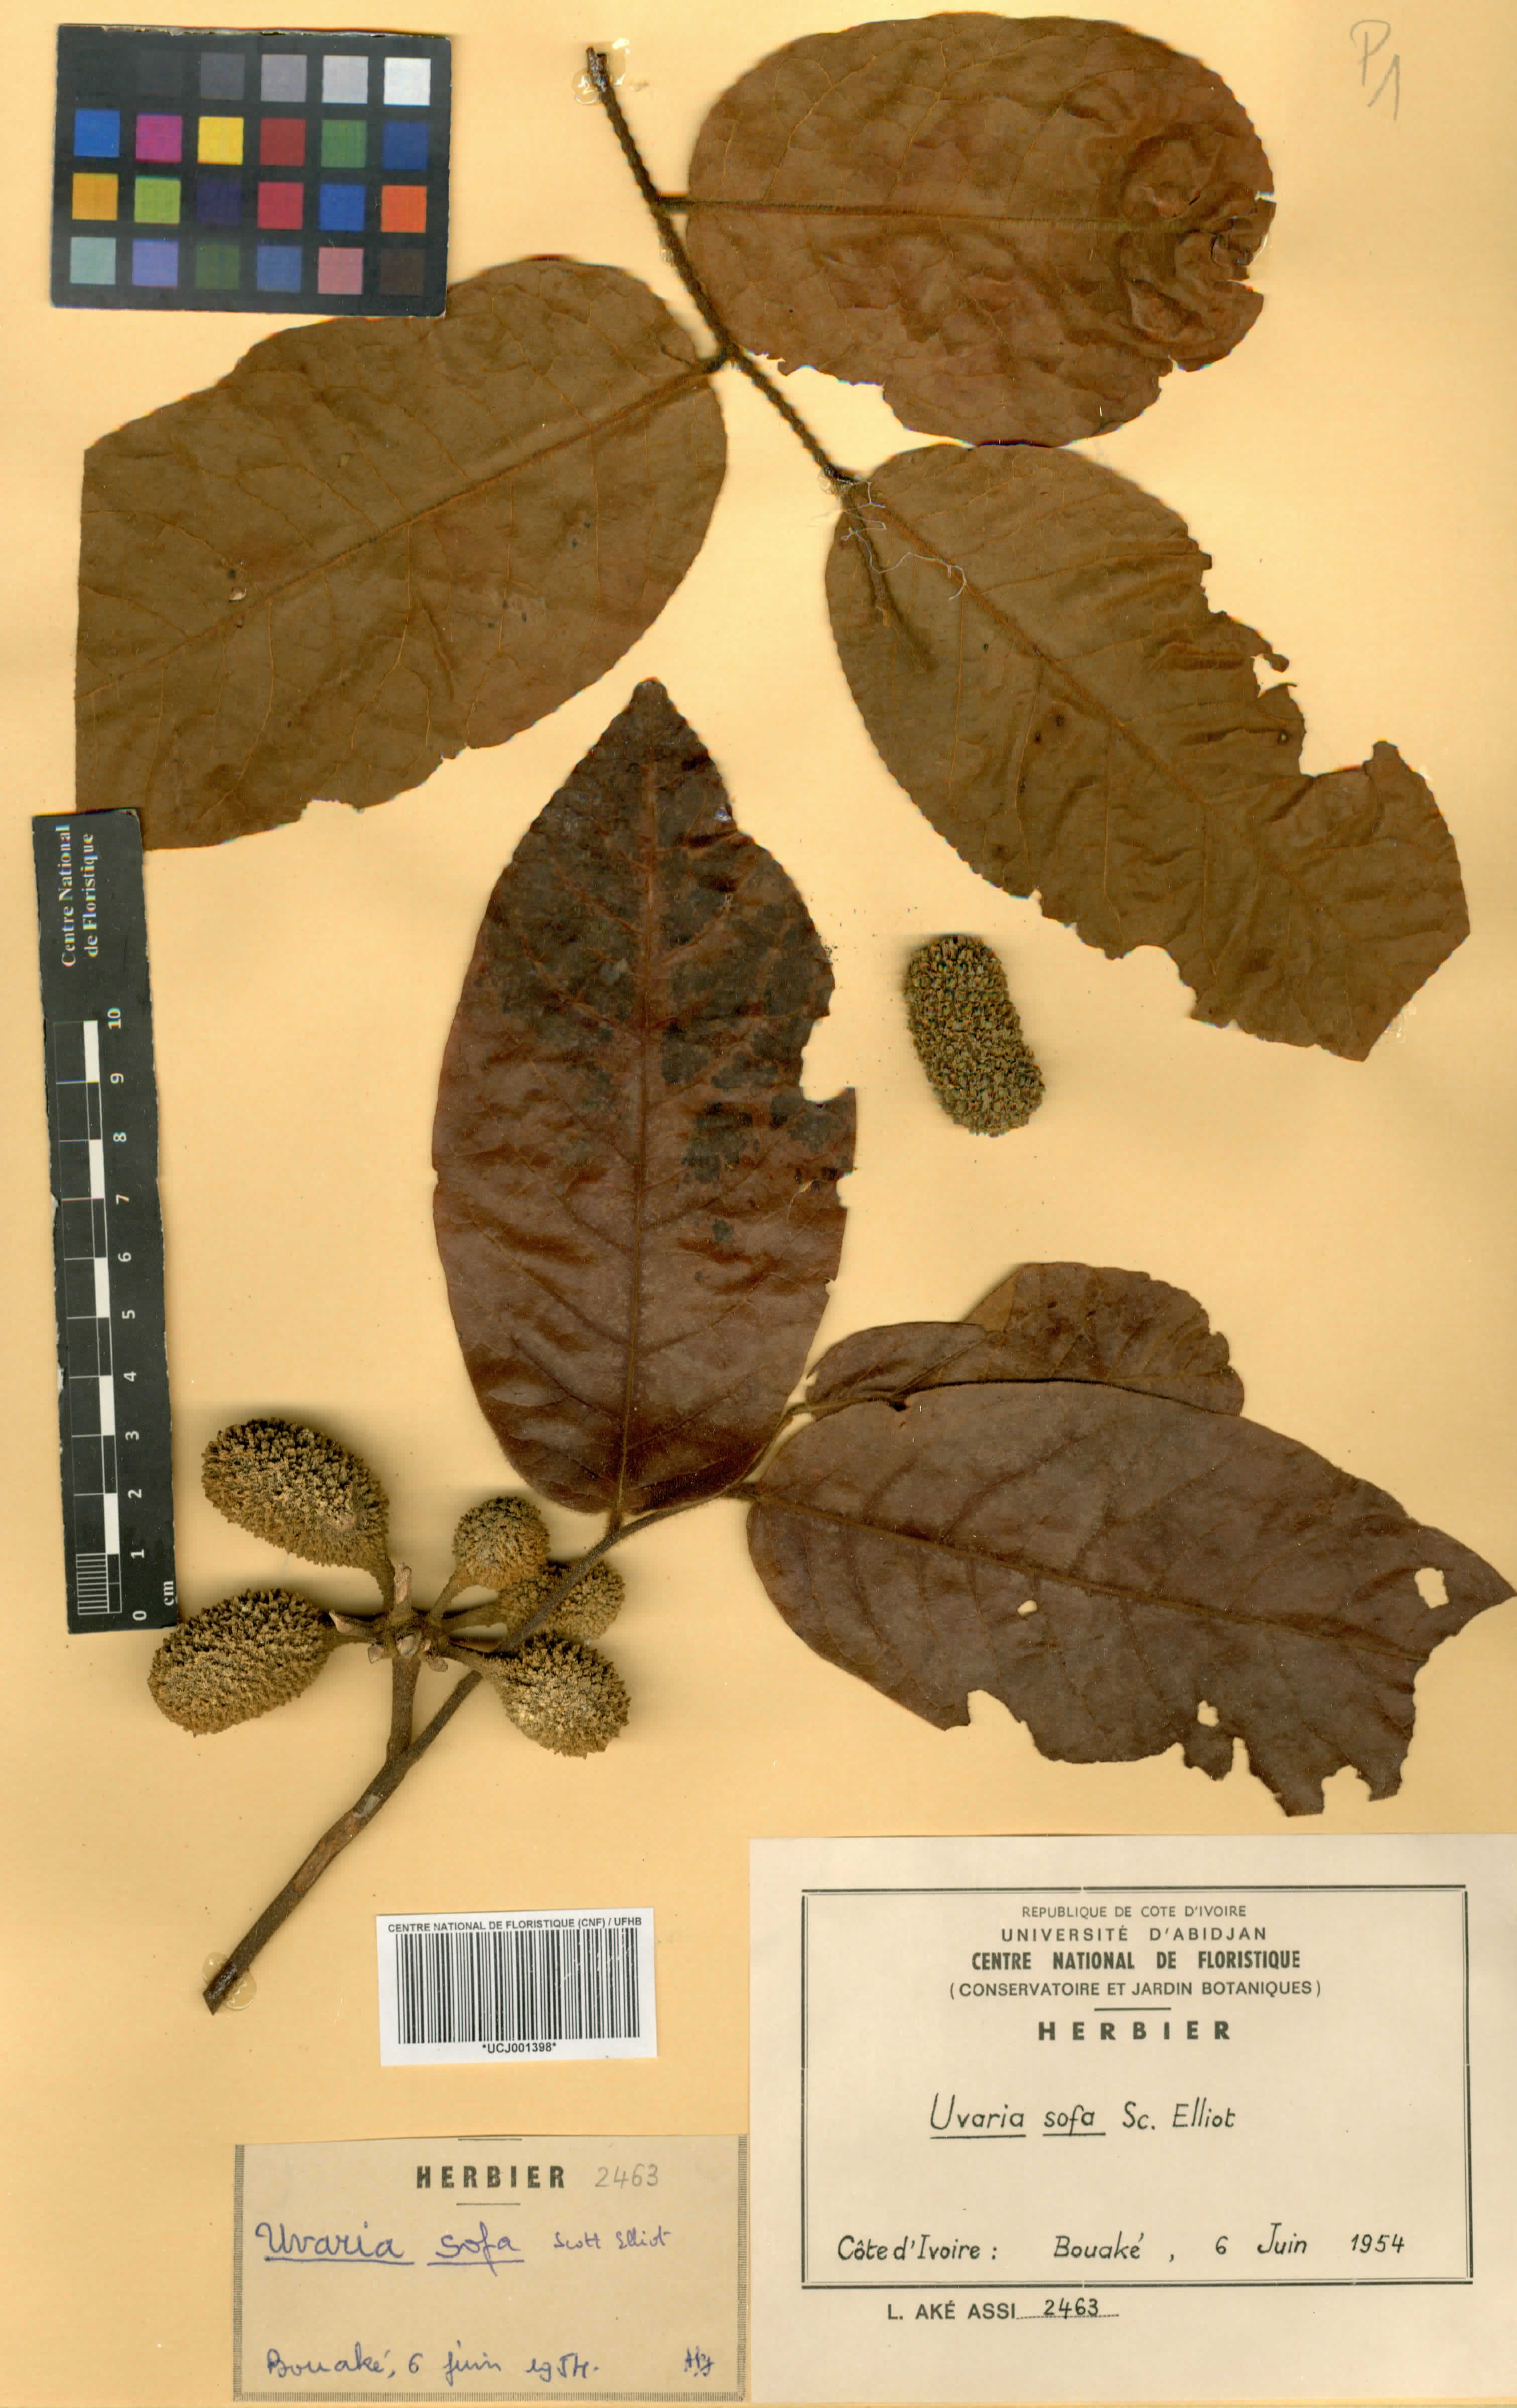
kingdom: Plantae
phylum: Tracheophyta
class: Magnoliopsida
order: Magnoliales
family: Annonaceae
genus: Uvaria
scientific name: Uvaria sofa
